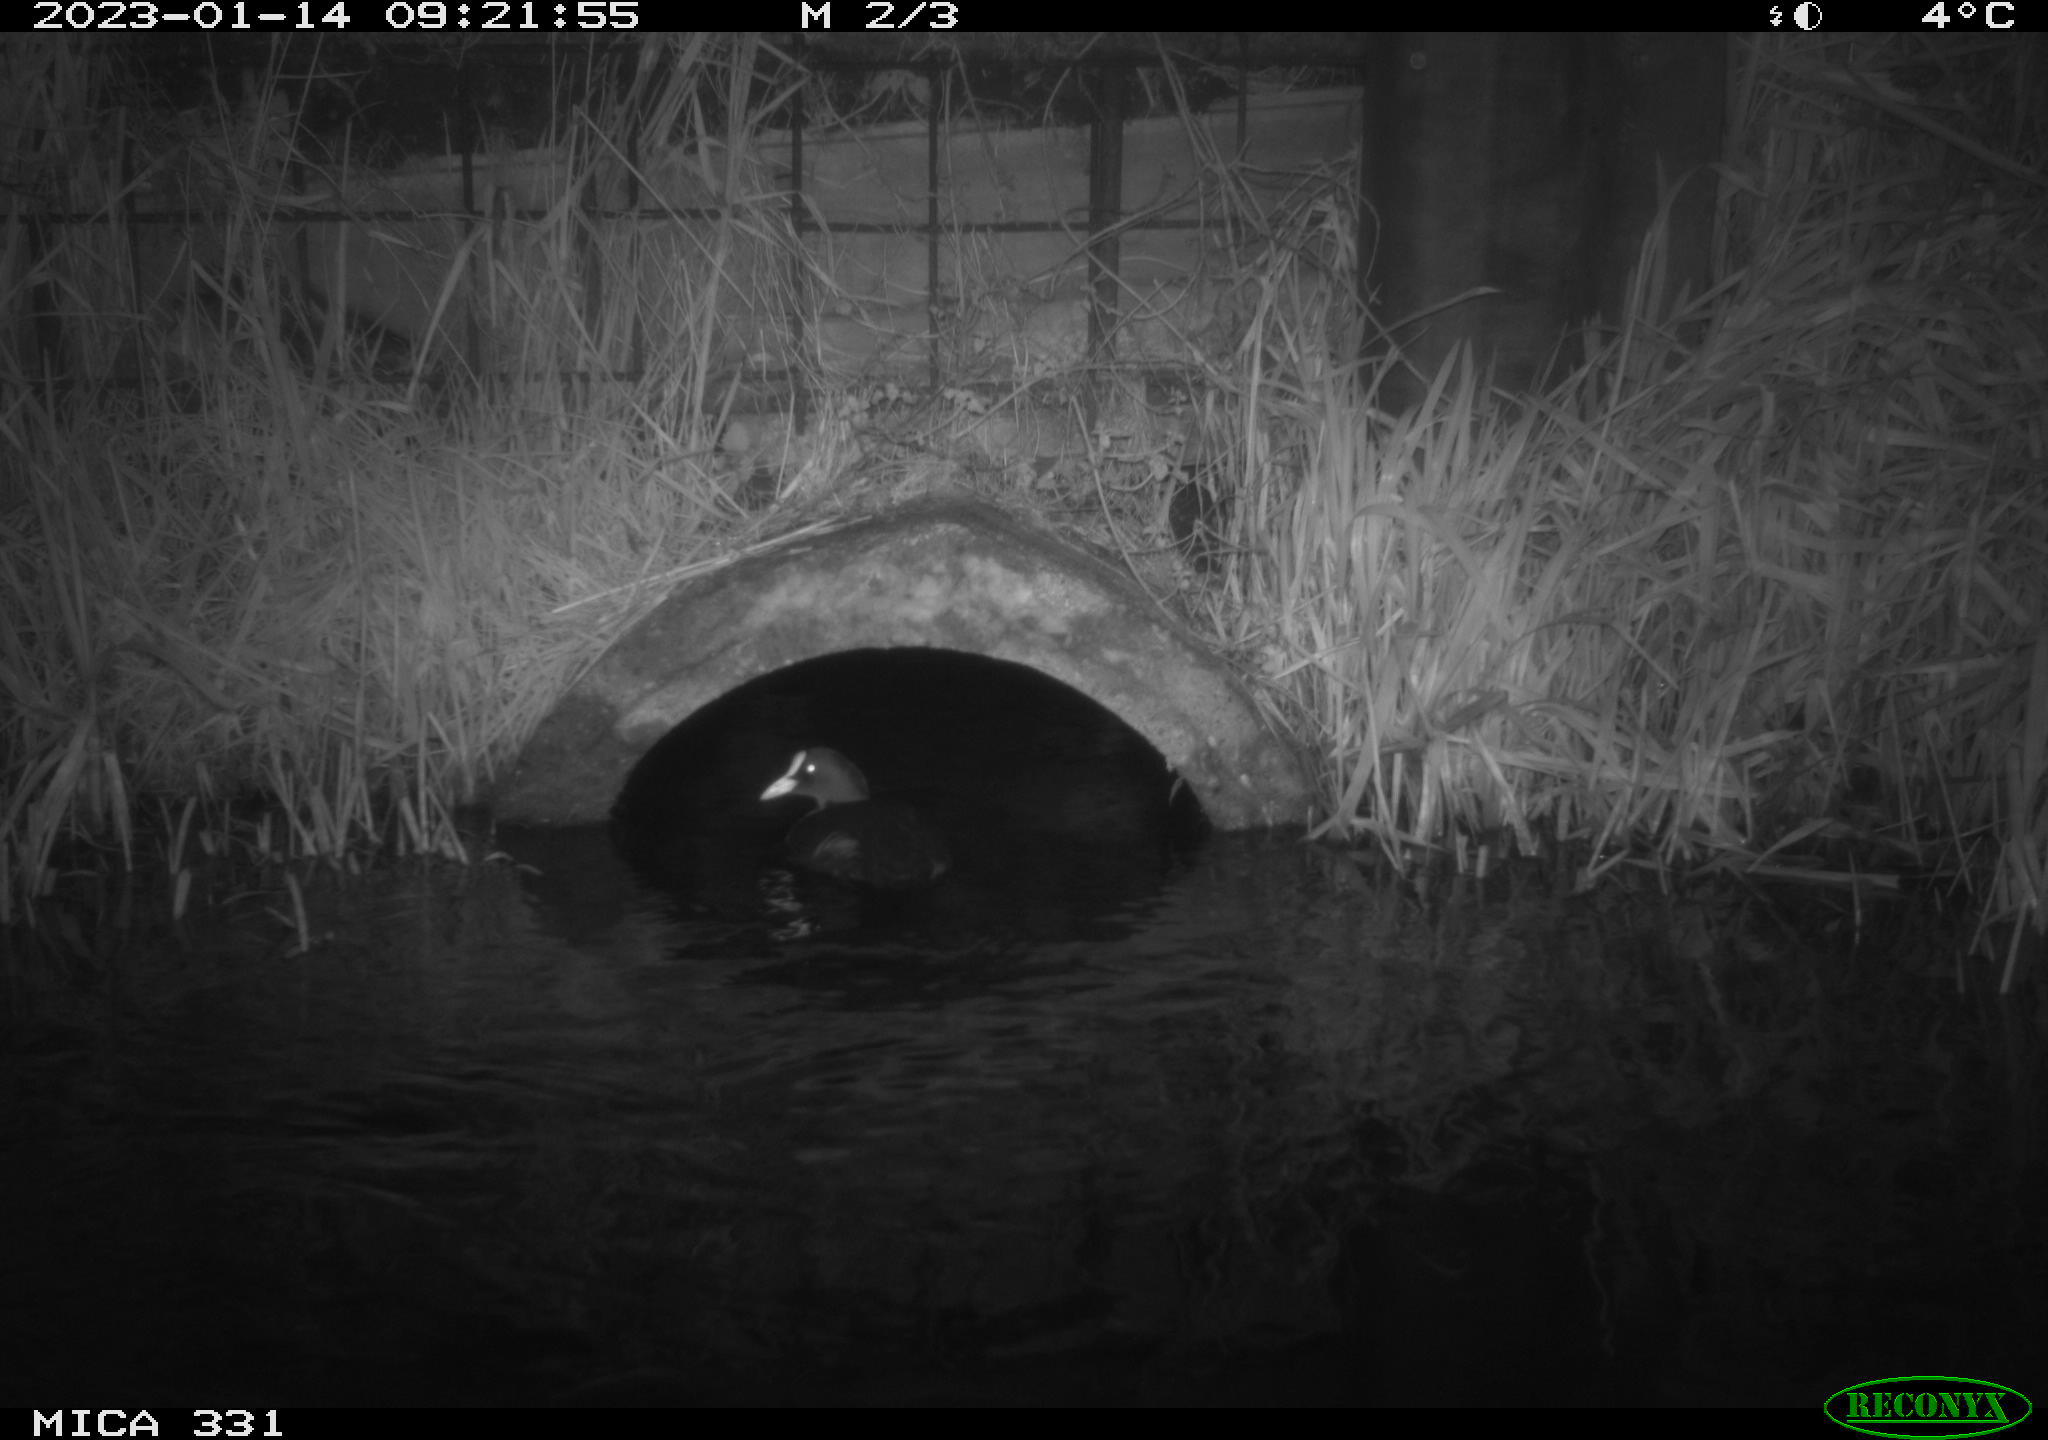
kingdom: Animalia
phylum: Chordata
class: Aves
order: Gruiformes
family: Rallidae
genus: Fulica
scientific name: Fulica atra
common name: Eurasian coot
